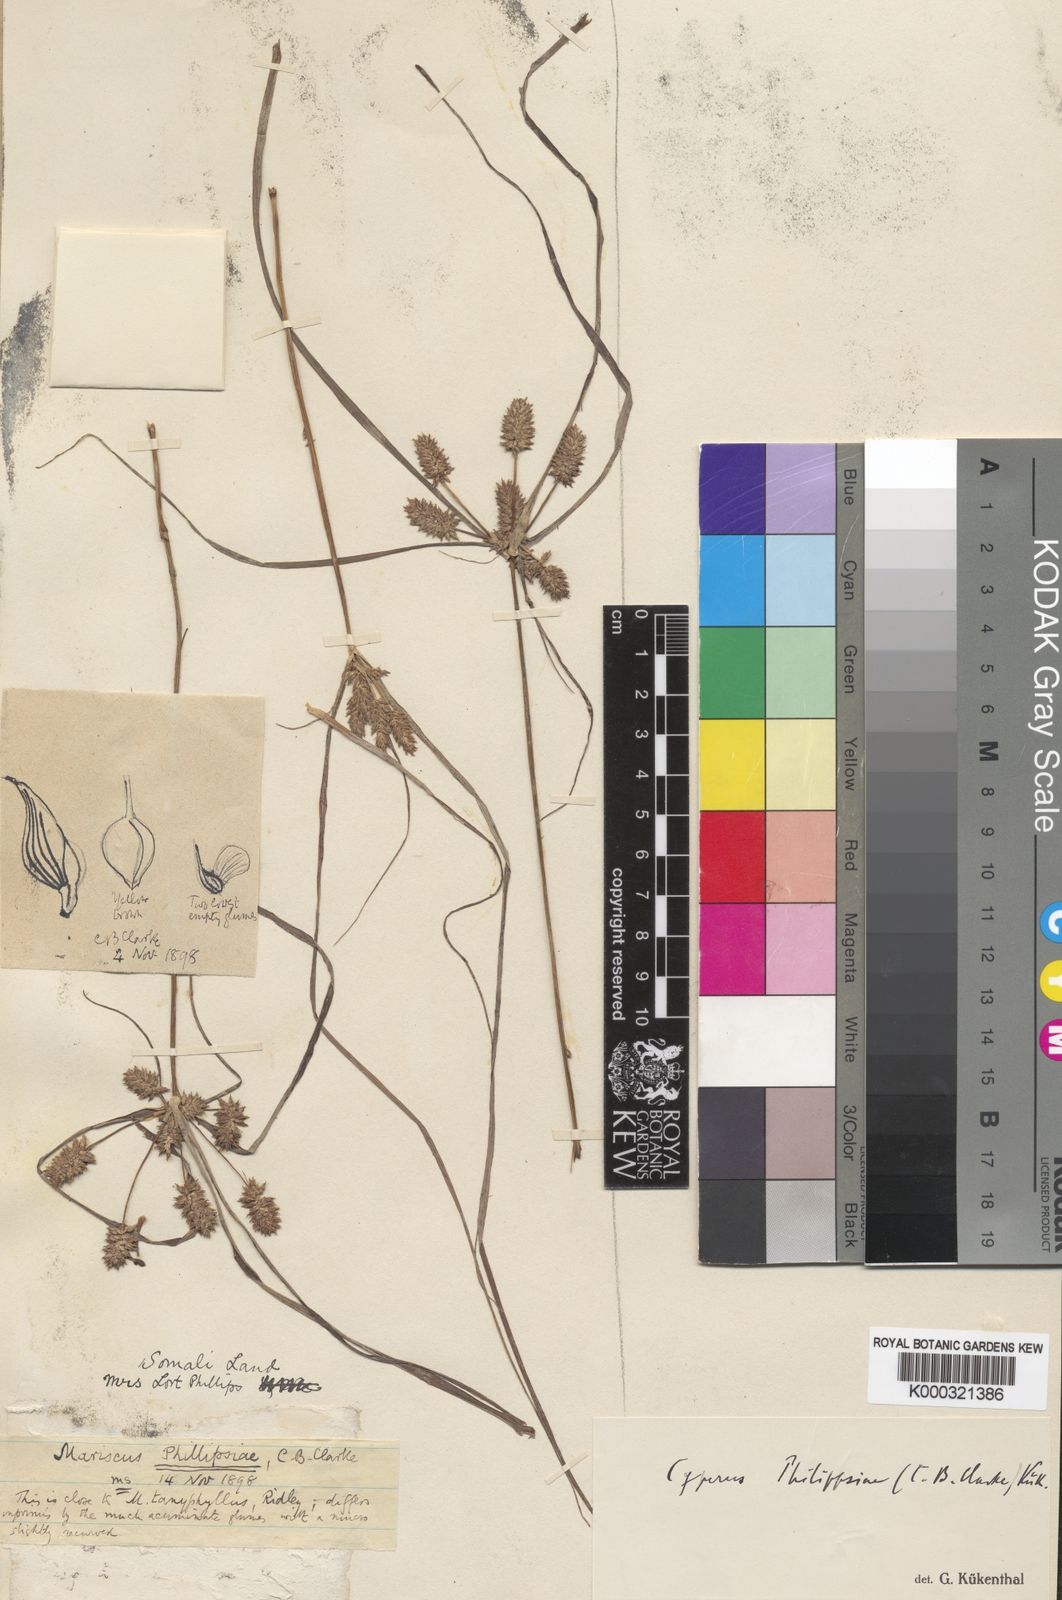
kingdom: Plantae
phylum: Tracheophyta
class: Liliopsida
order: Poales
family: Cyperaceae
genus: Cyperus
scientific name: Cyperus
